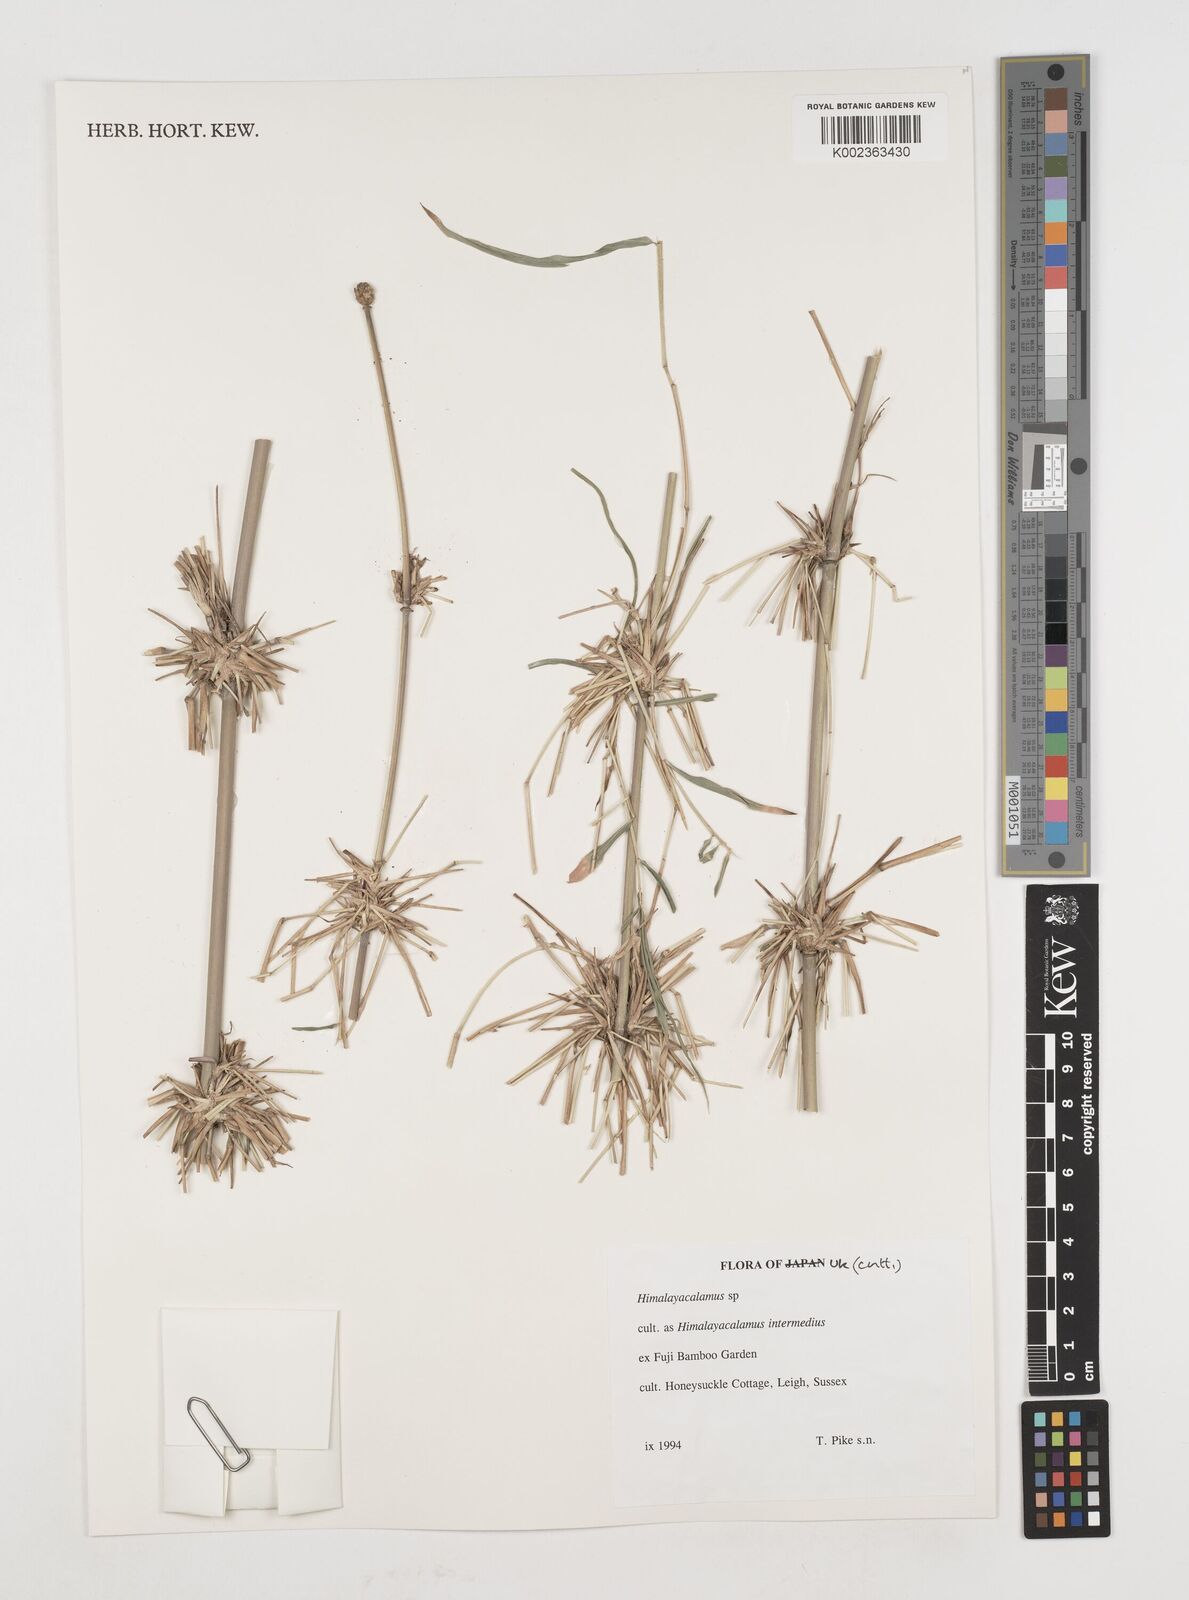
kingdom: Plantae
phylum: Tracheophyta
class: Liliopsida
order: Poales
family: Poaceae
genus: Himalayacalamus
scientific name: Himalayacalamus
